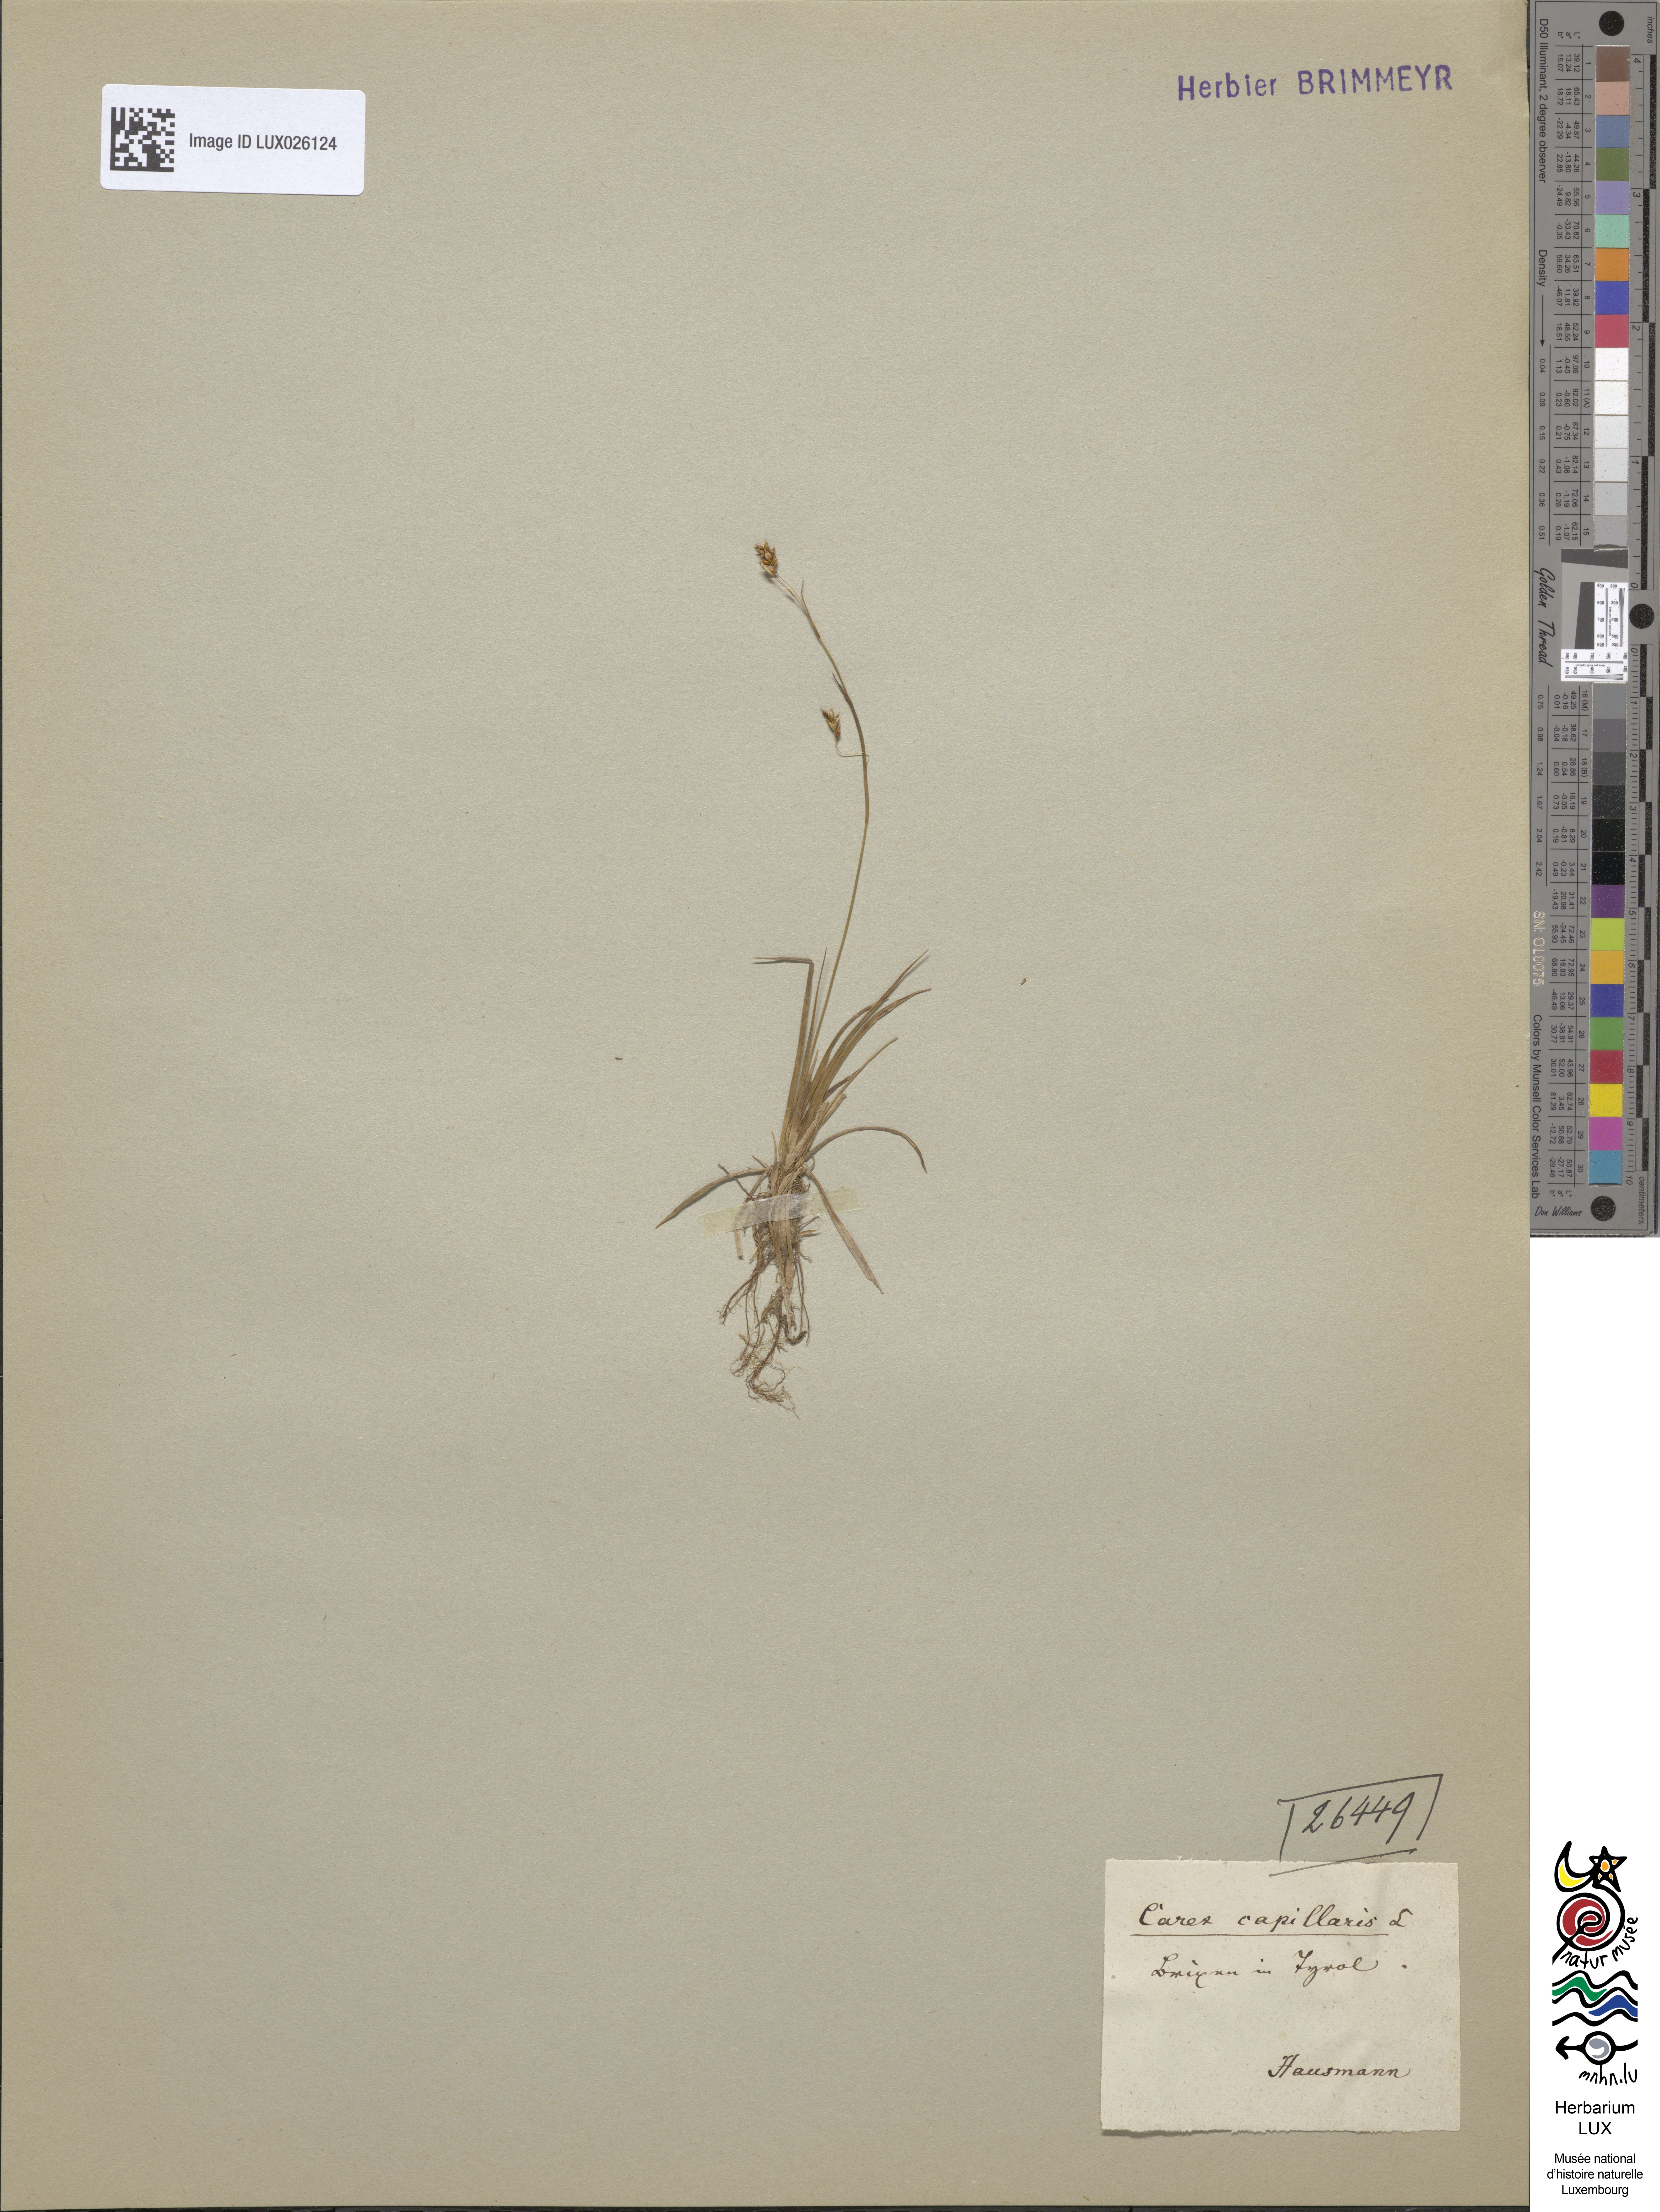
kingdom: Plantae
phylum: Tracheophyta
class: Liliopsida
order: Poales
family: Cyperaceae
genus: Carex
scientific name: Carex capillaris
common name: Hair sedge
